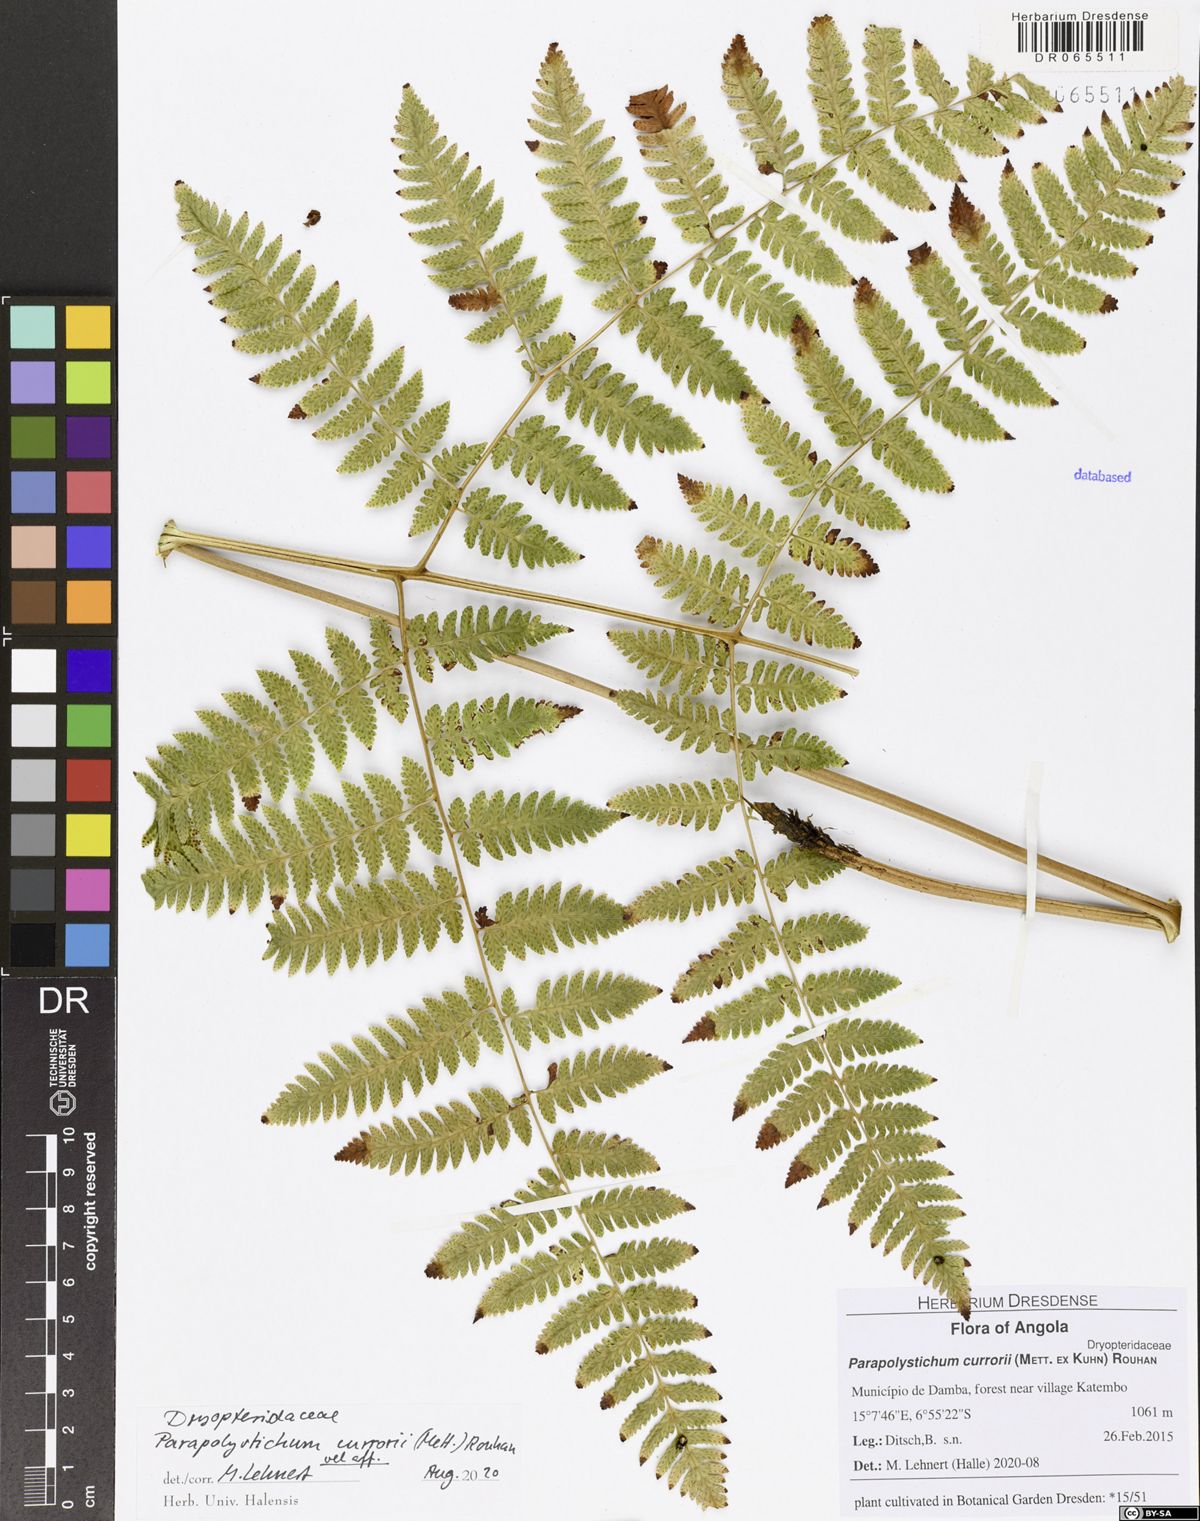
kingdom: Plantae
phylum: Tracheophyta
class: Polypodiopsida
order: Polypodiales
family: Dryopteridaceae
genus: Parapolystichum
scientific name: Parapolystichum currorii
